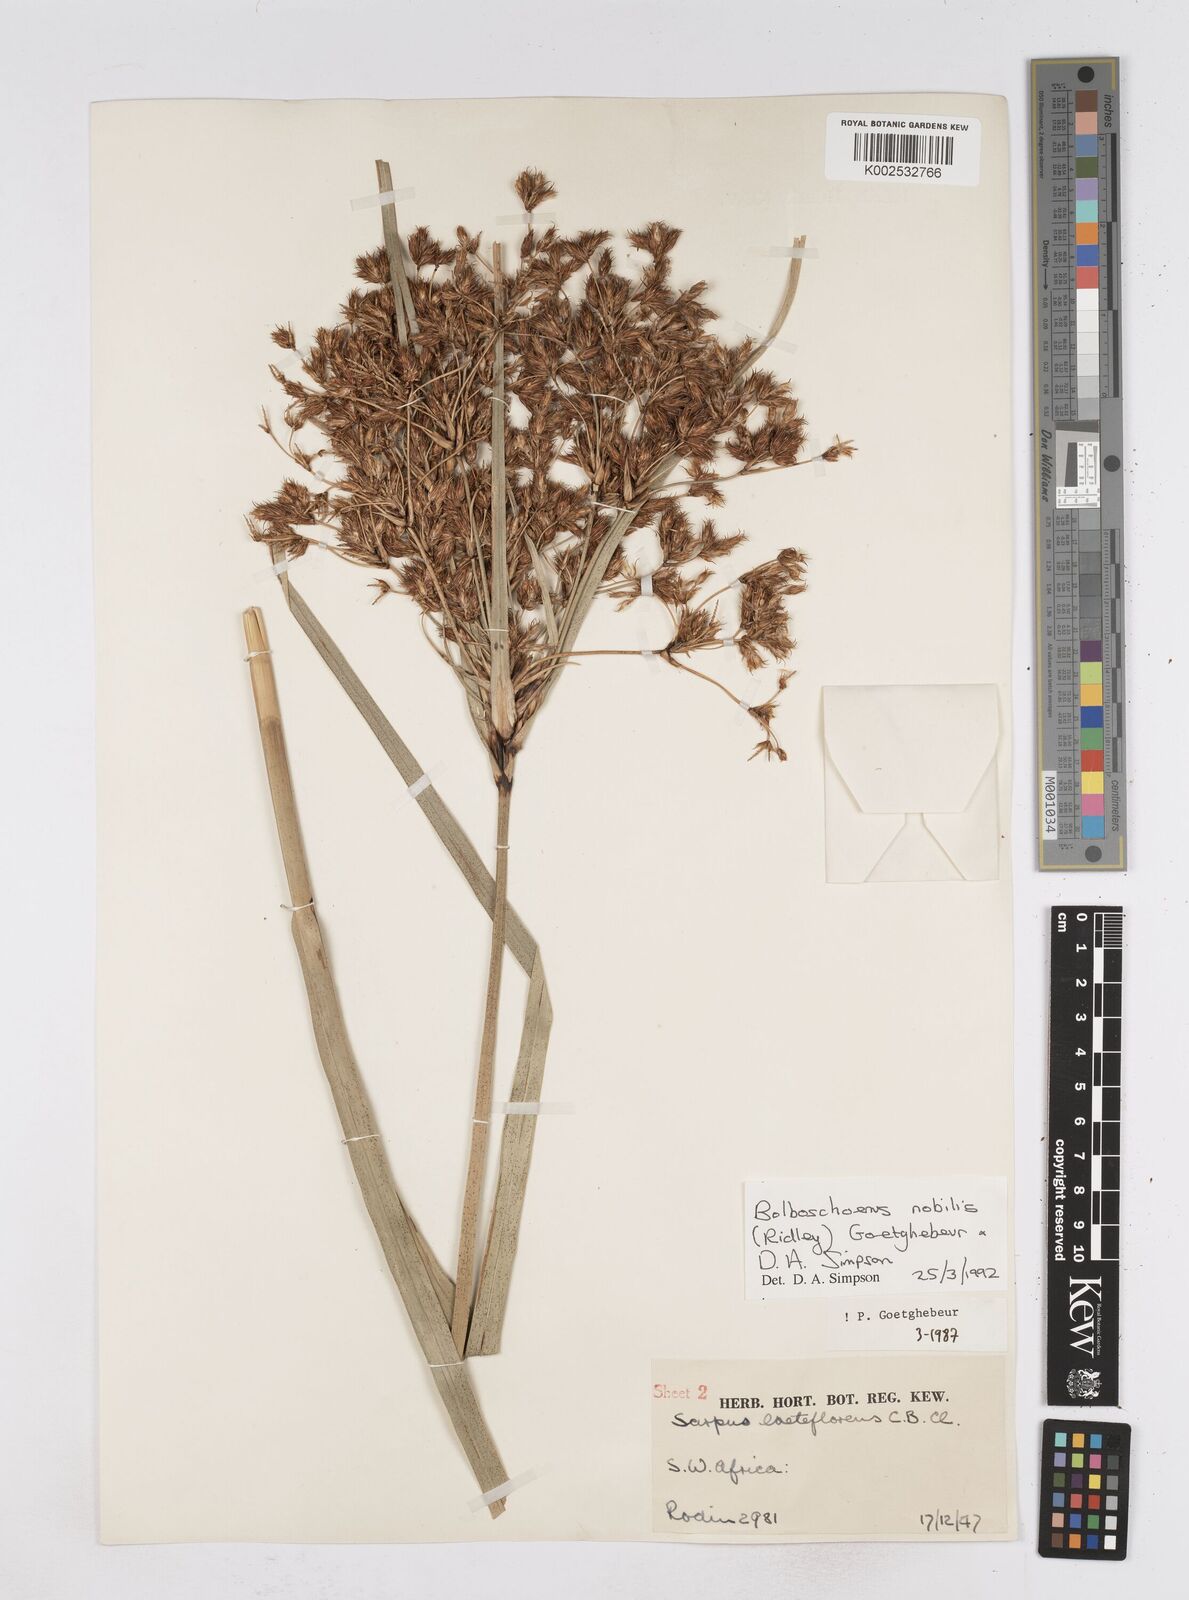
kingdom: Plantae
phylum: Tracheophyta
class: Liliopsida
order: Poales
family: Cyperaceae
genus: Bolboschoenus
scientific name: Bolboschoenus nobilis
